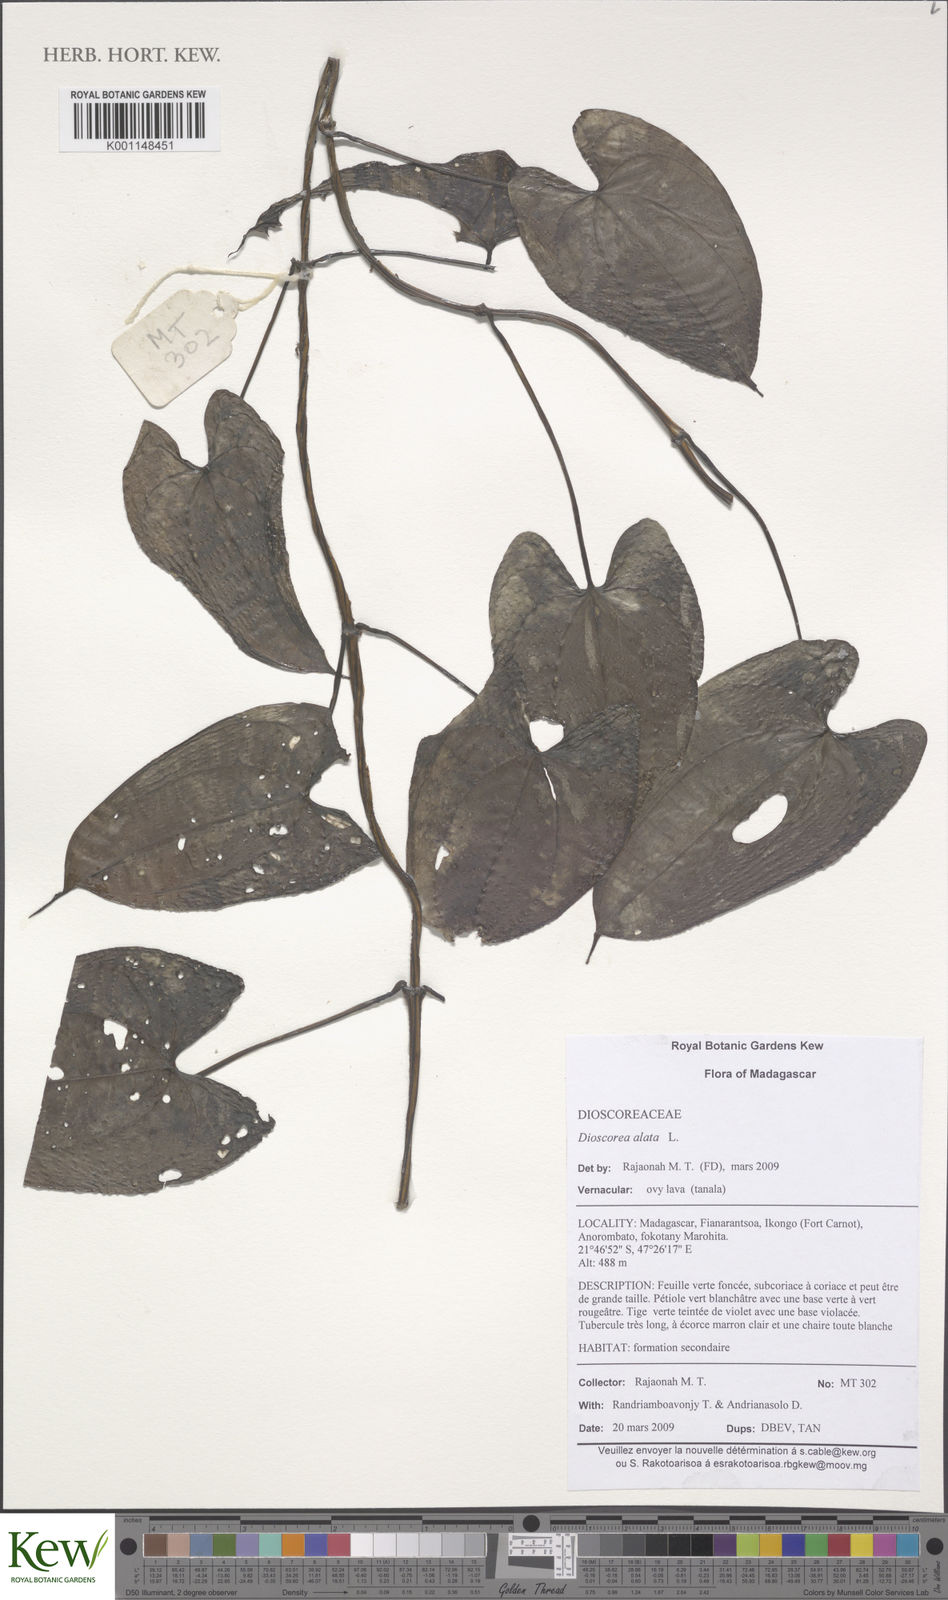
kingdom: Plantae
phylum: Tracheophyta
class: Liliopsida
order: Dioscoreales
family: Dioscoreaceae
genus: Dioscorea
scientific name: Dioscorea alata
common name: Water yam
